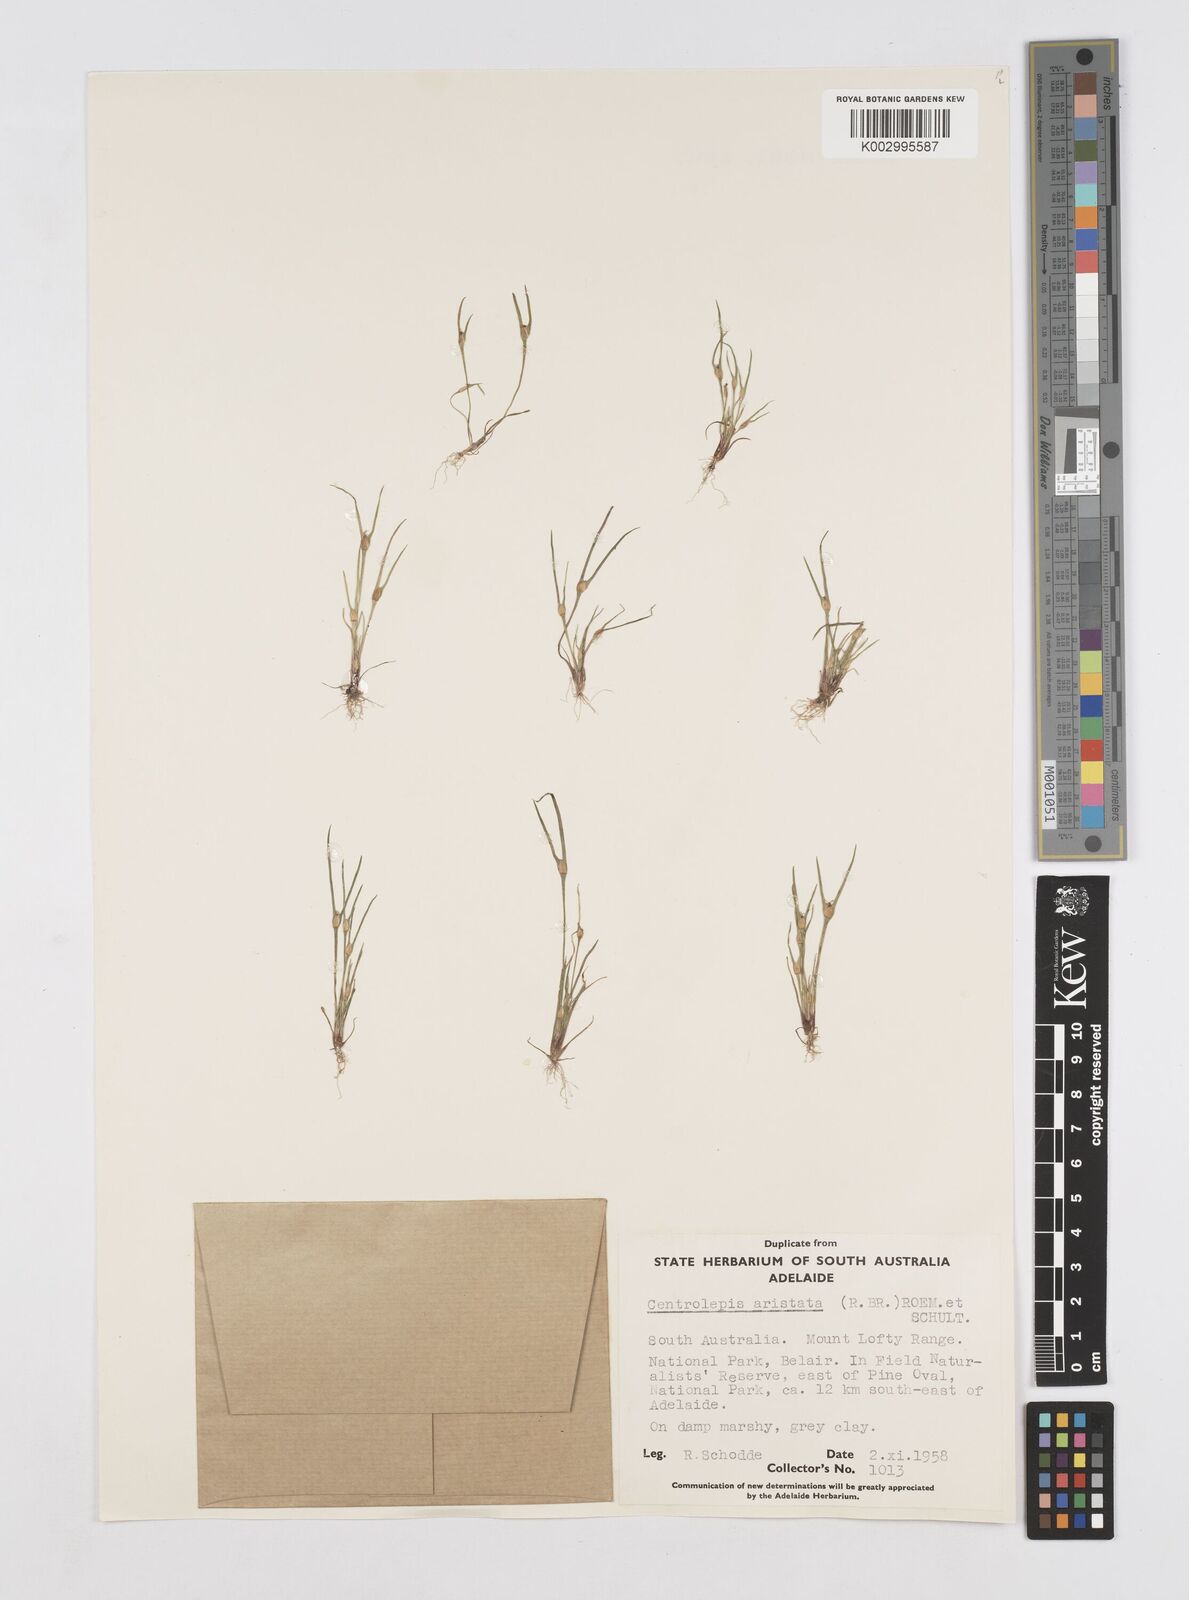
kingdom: Plantae
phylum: Tracheophyta
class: Liliopsida
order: Poales
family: Restionaceae
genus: Centrolepis
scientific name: Centrolepis aristata
